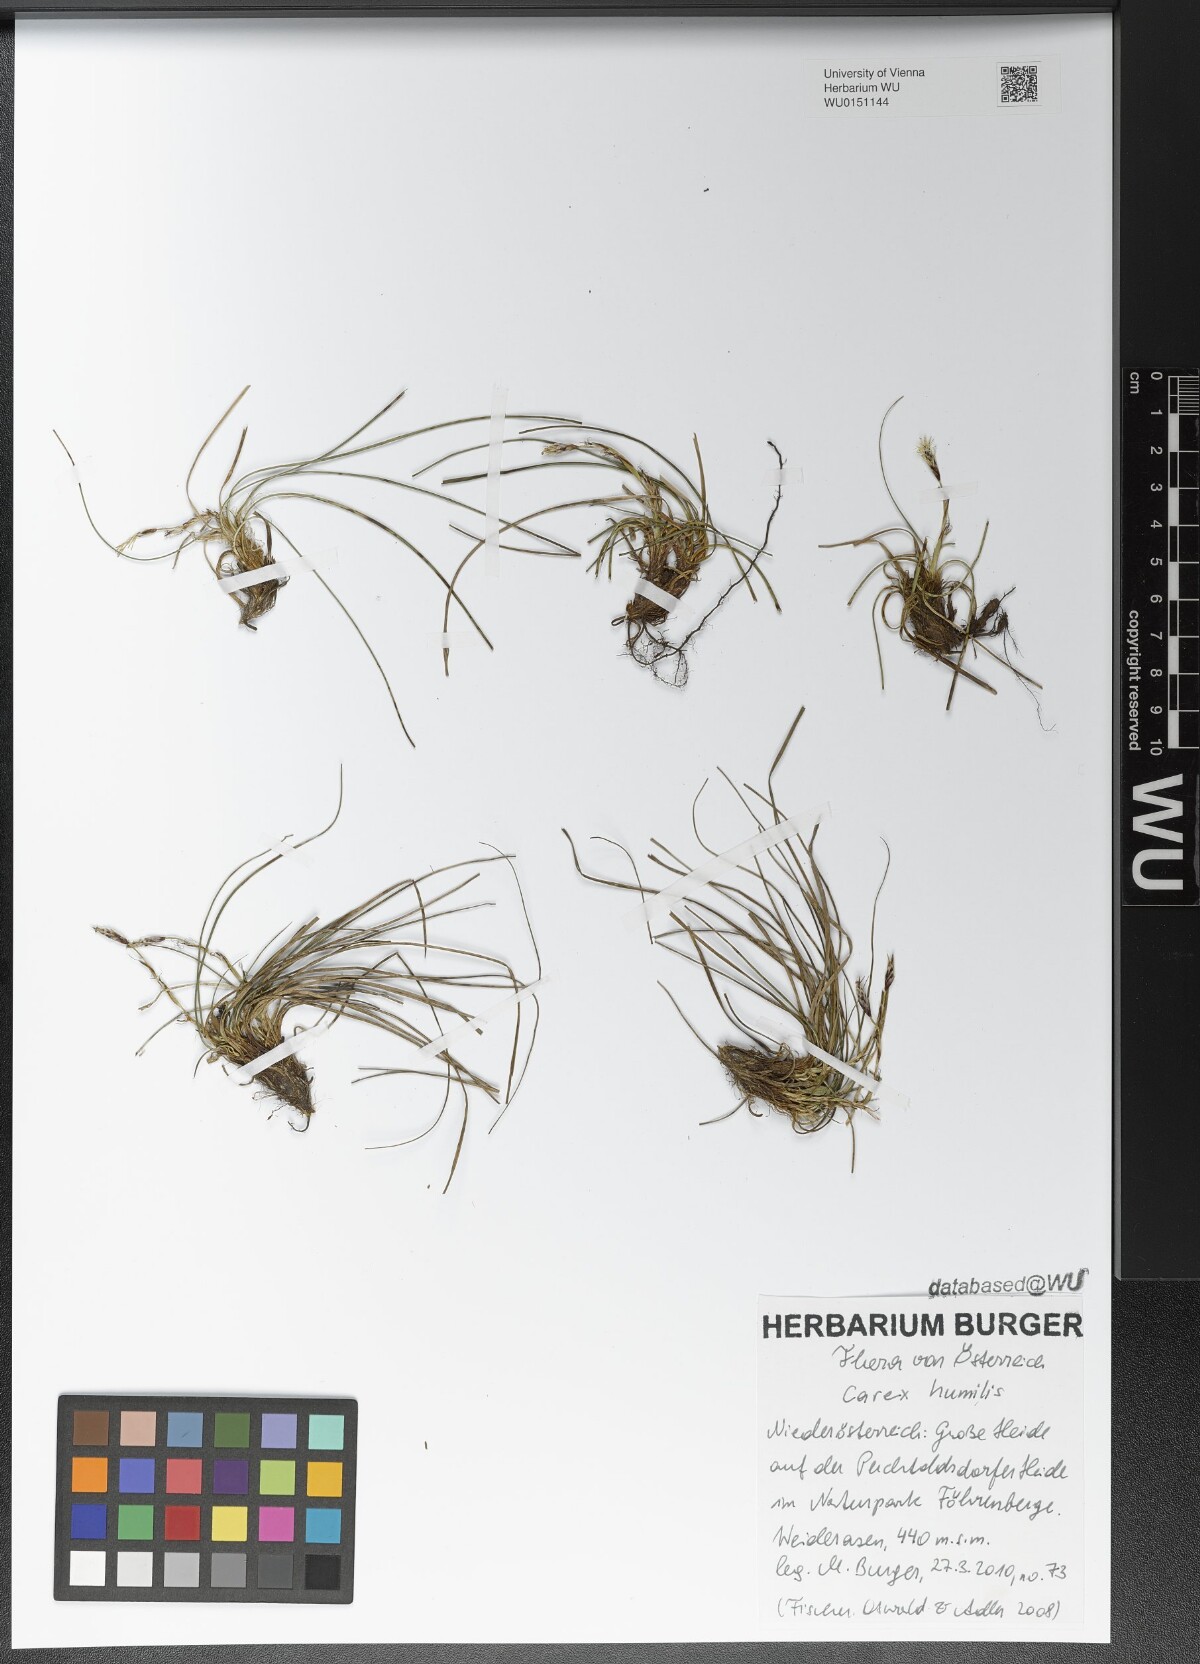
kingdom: Plantae
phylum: Tracheophyta
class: Liliopsida
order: Poales
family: Cyperaceae
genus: Carex
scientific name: Carex humilis
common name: Dwarf sedge
